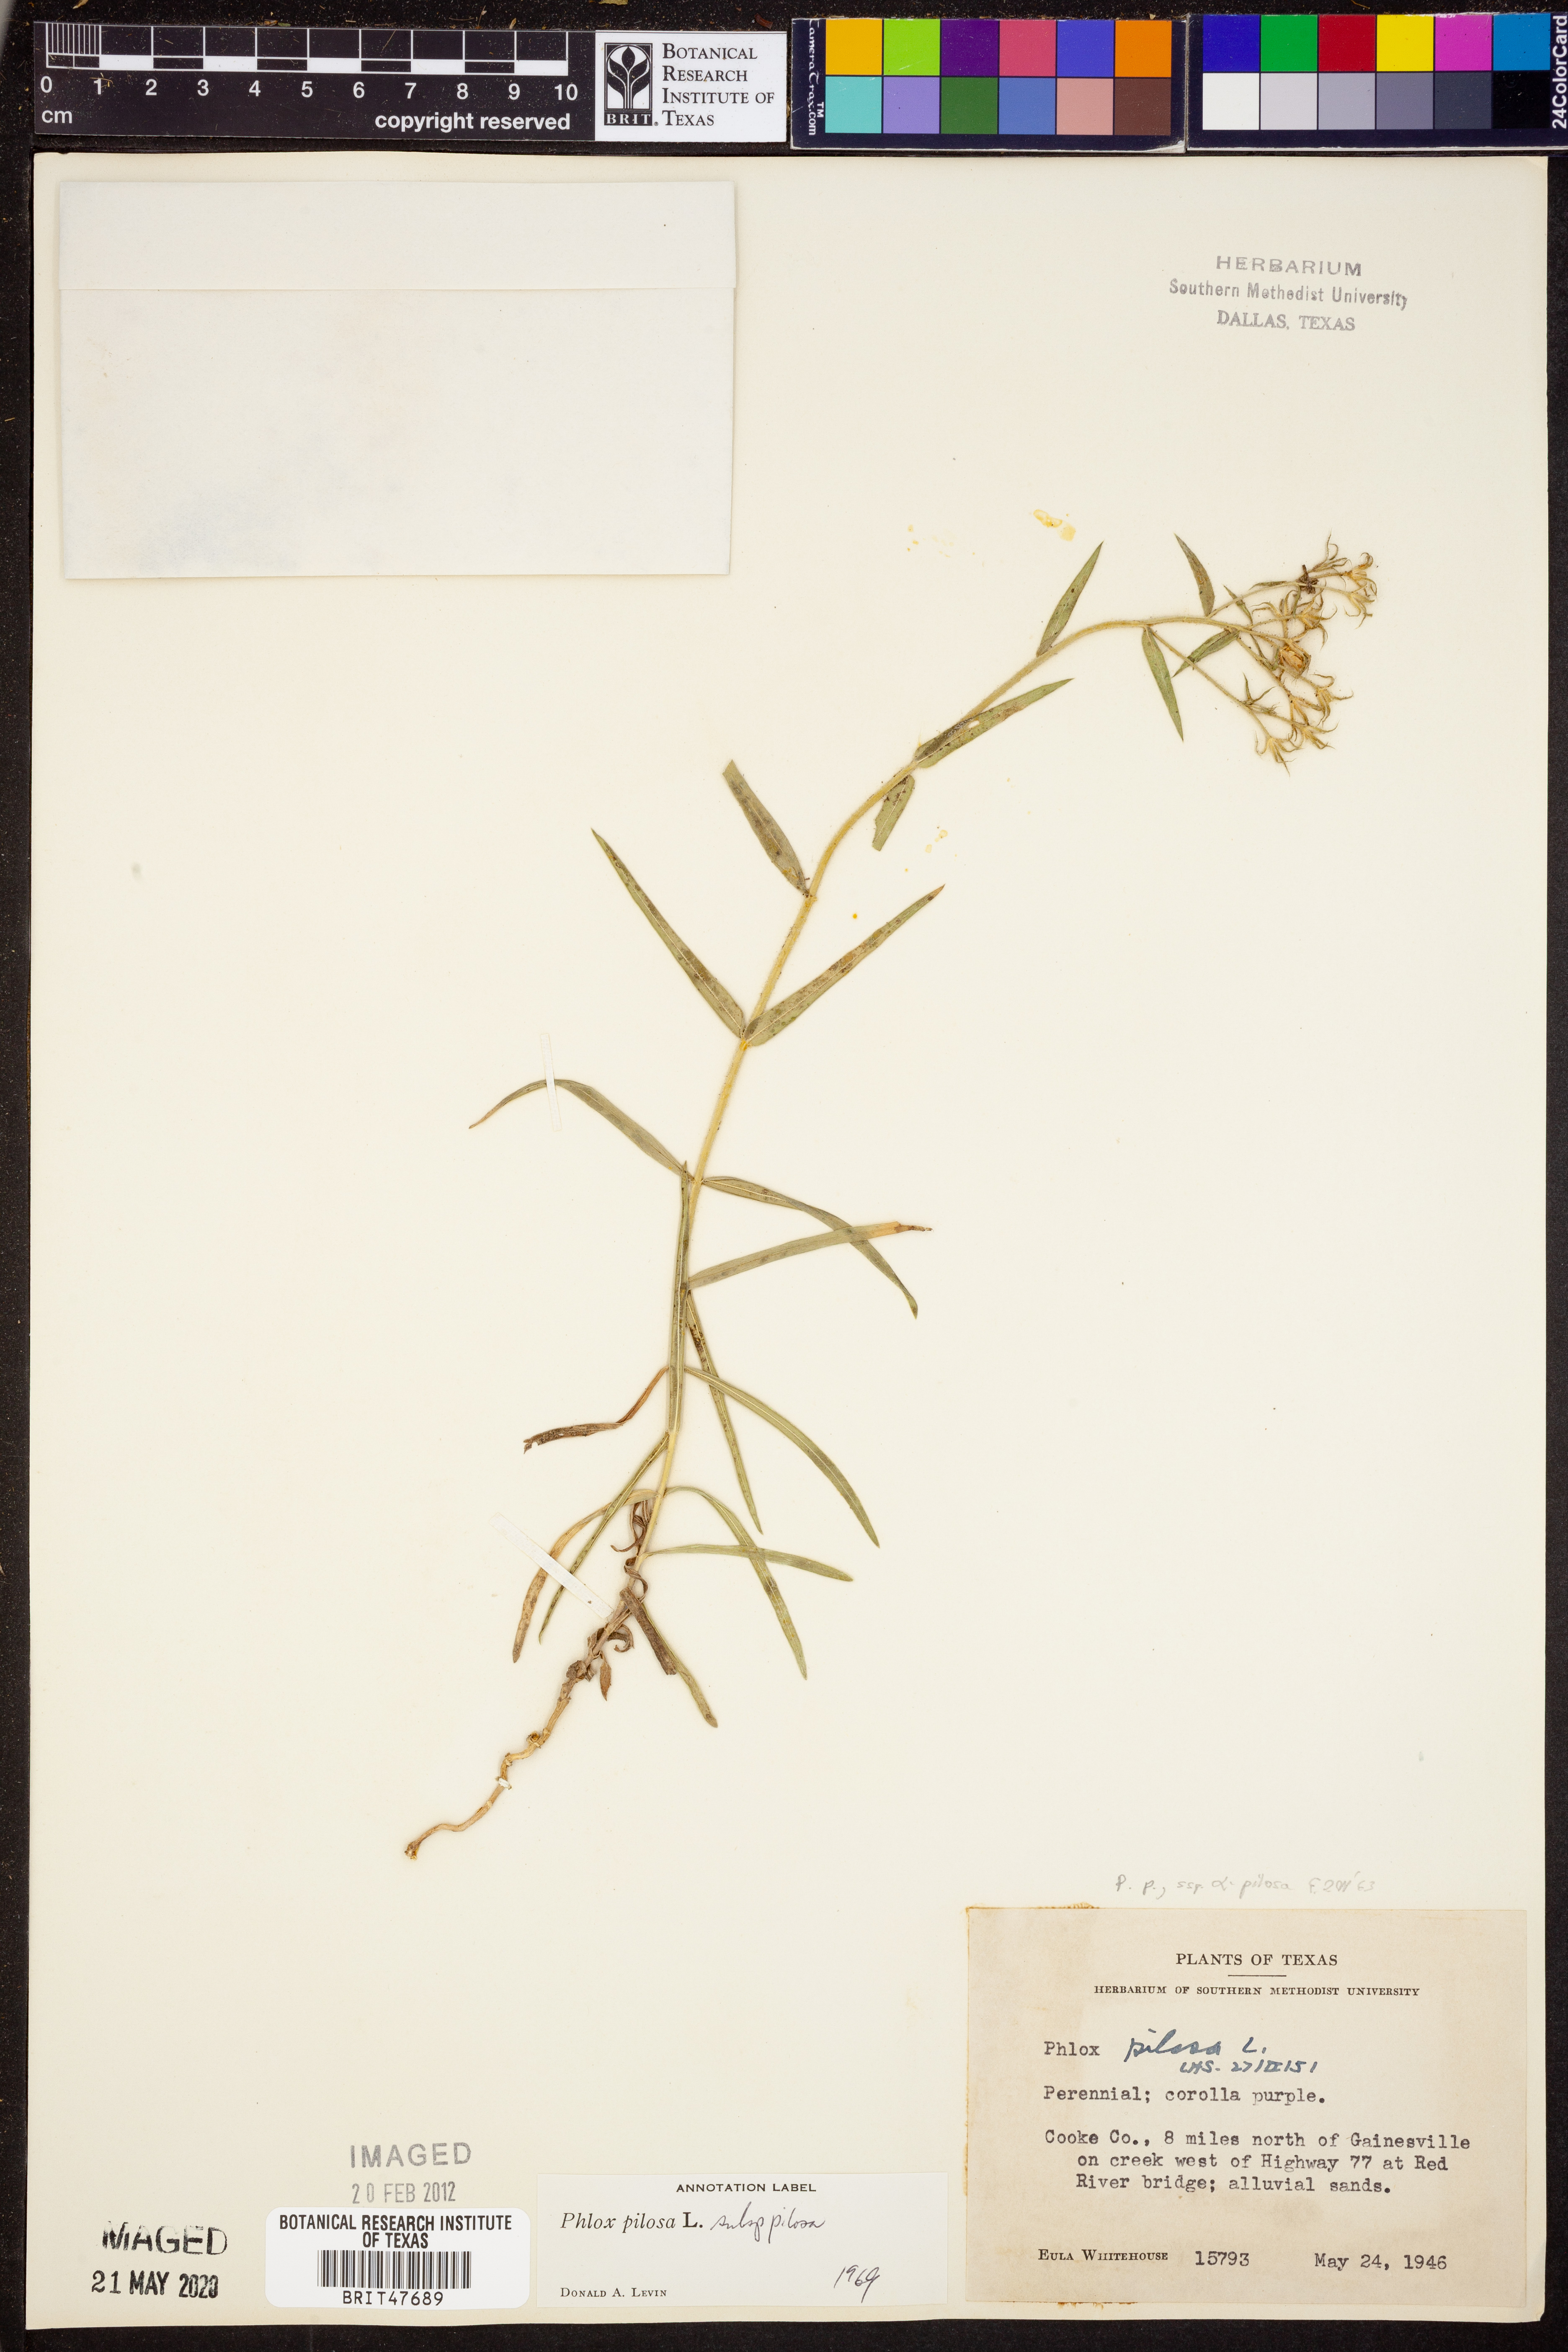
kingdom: Plantae
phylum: Tracheophyta
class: Magnoliopsida
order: Ericales
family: Polemoniaceae
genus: Phlox
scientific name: Phlox pilosa
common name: Prairie phlox
